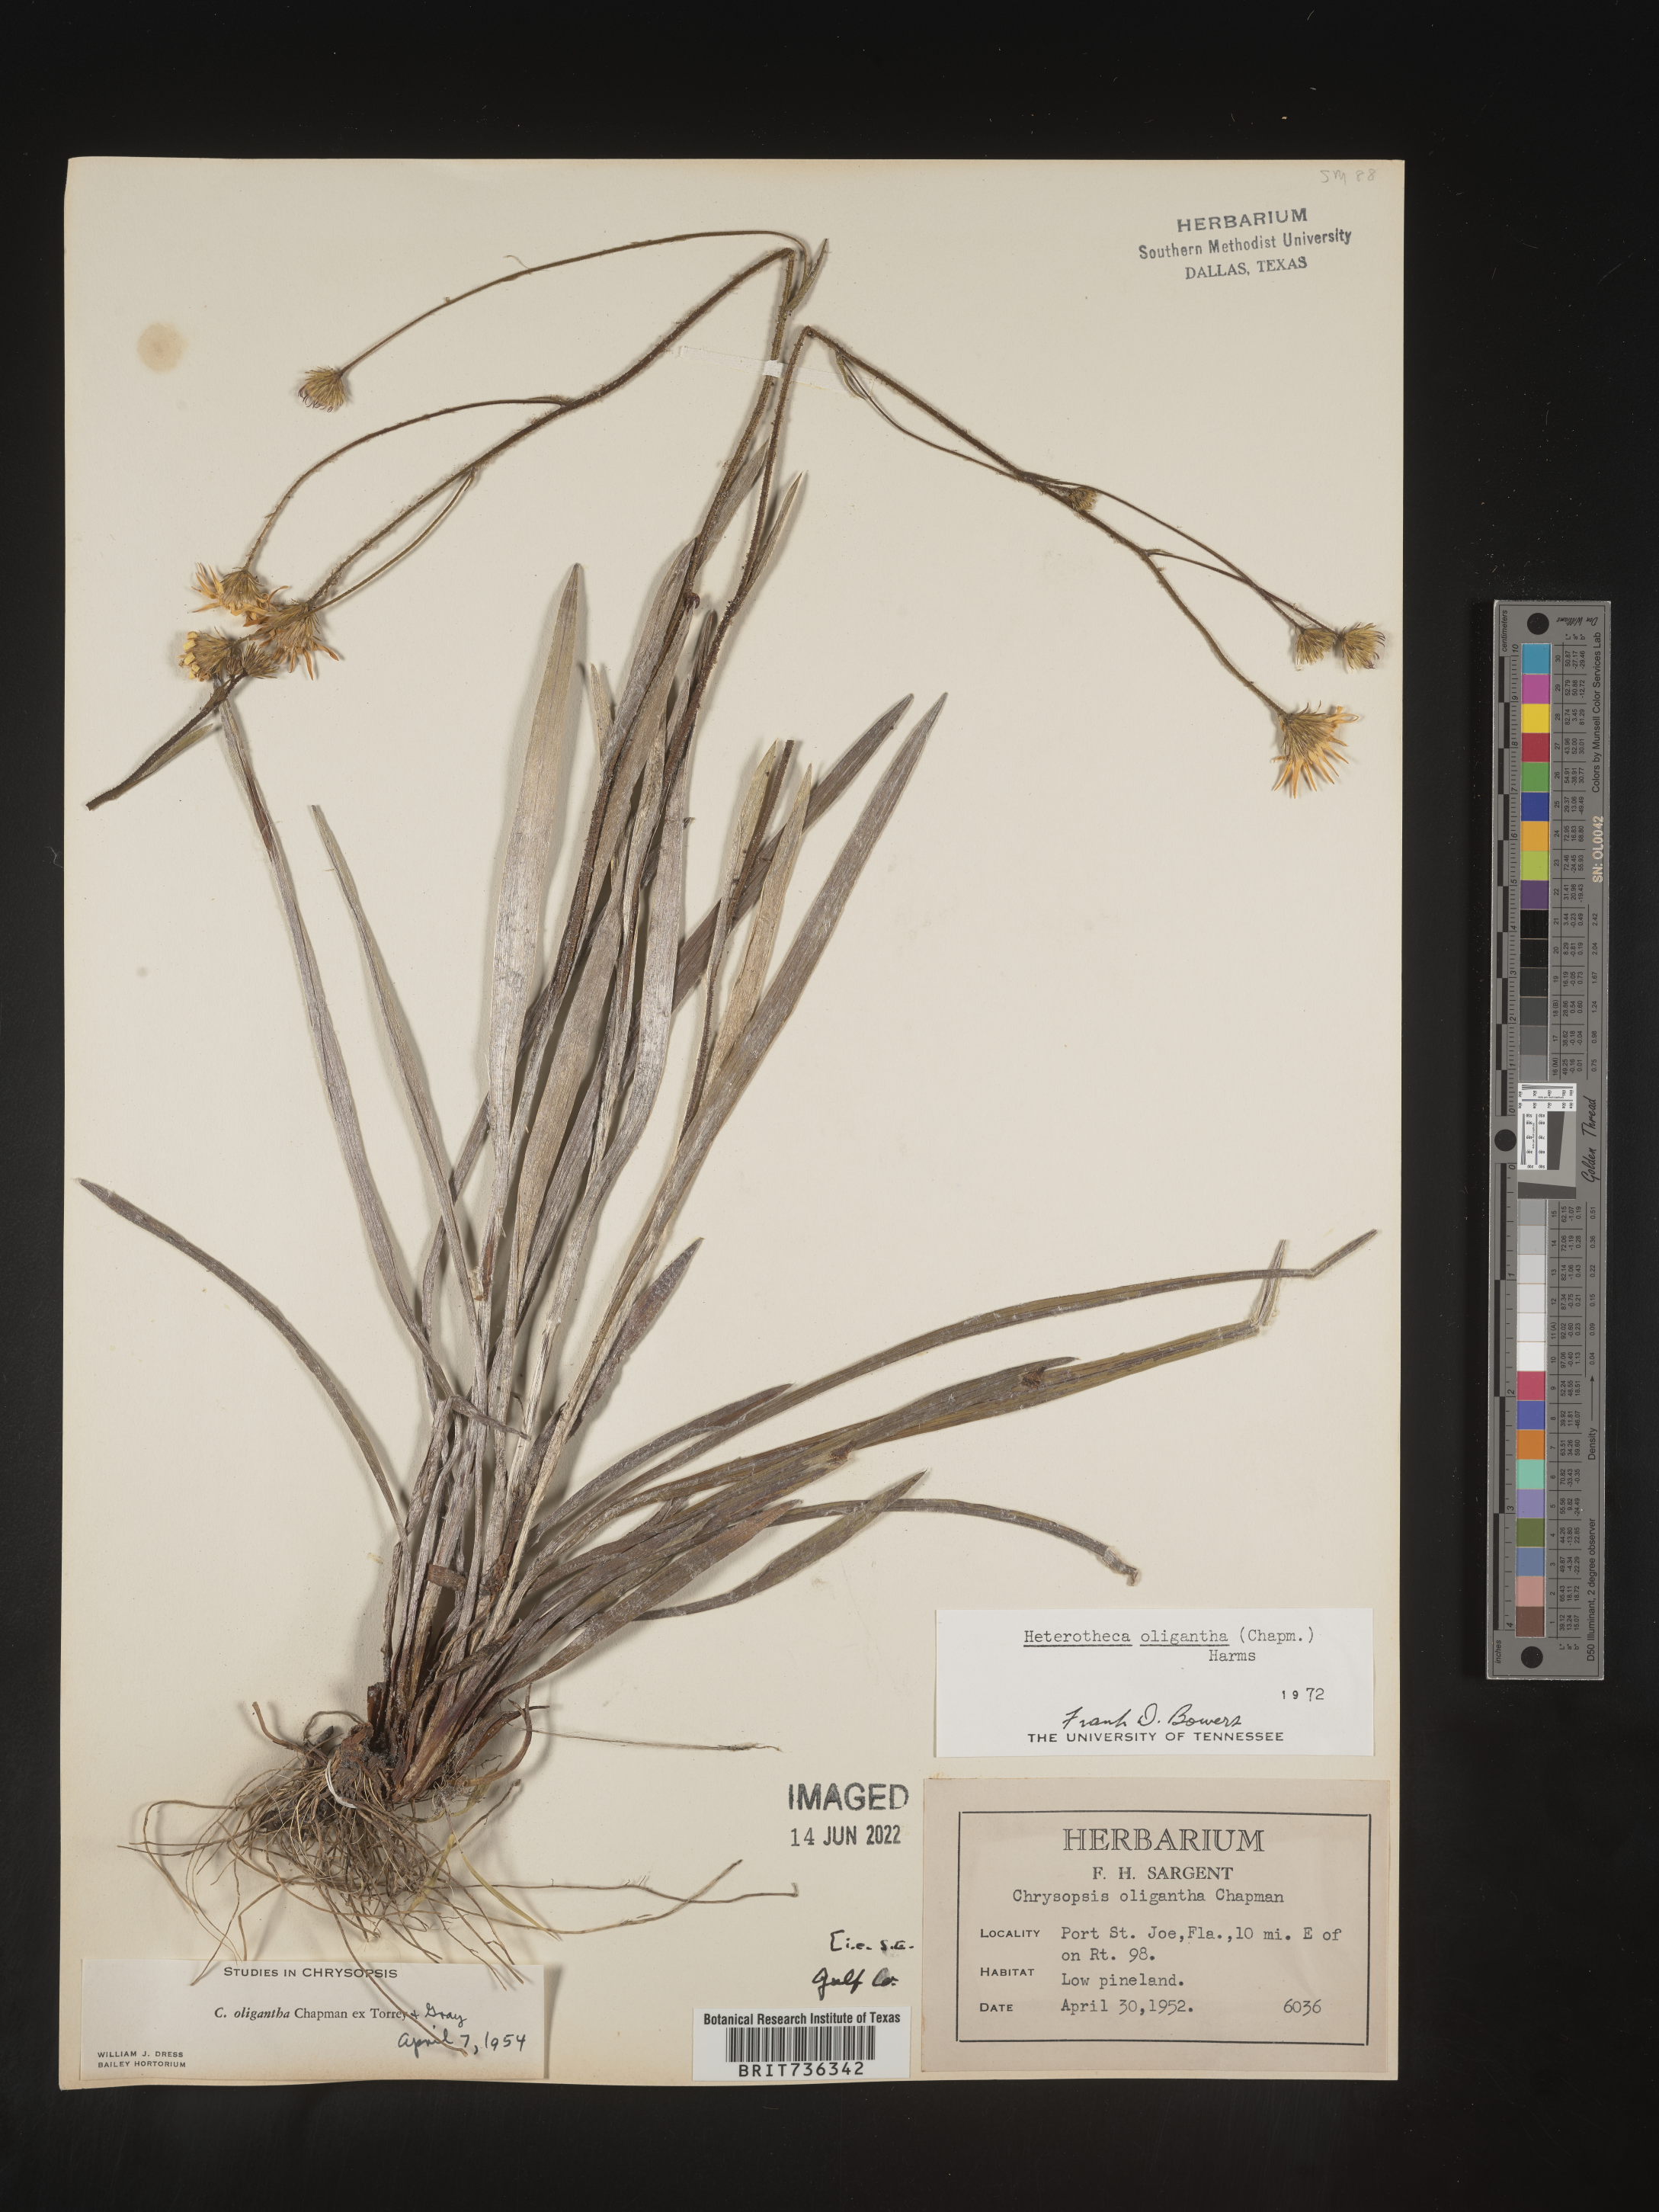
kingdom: Plantae
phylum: Tracheophyta
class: Magnoliopsida
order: Asterales
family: Asteraceae
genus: Pityopsis
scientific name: Pityopsis oligantha
